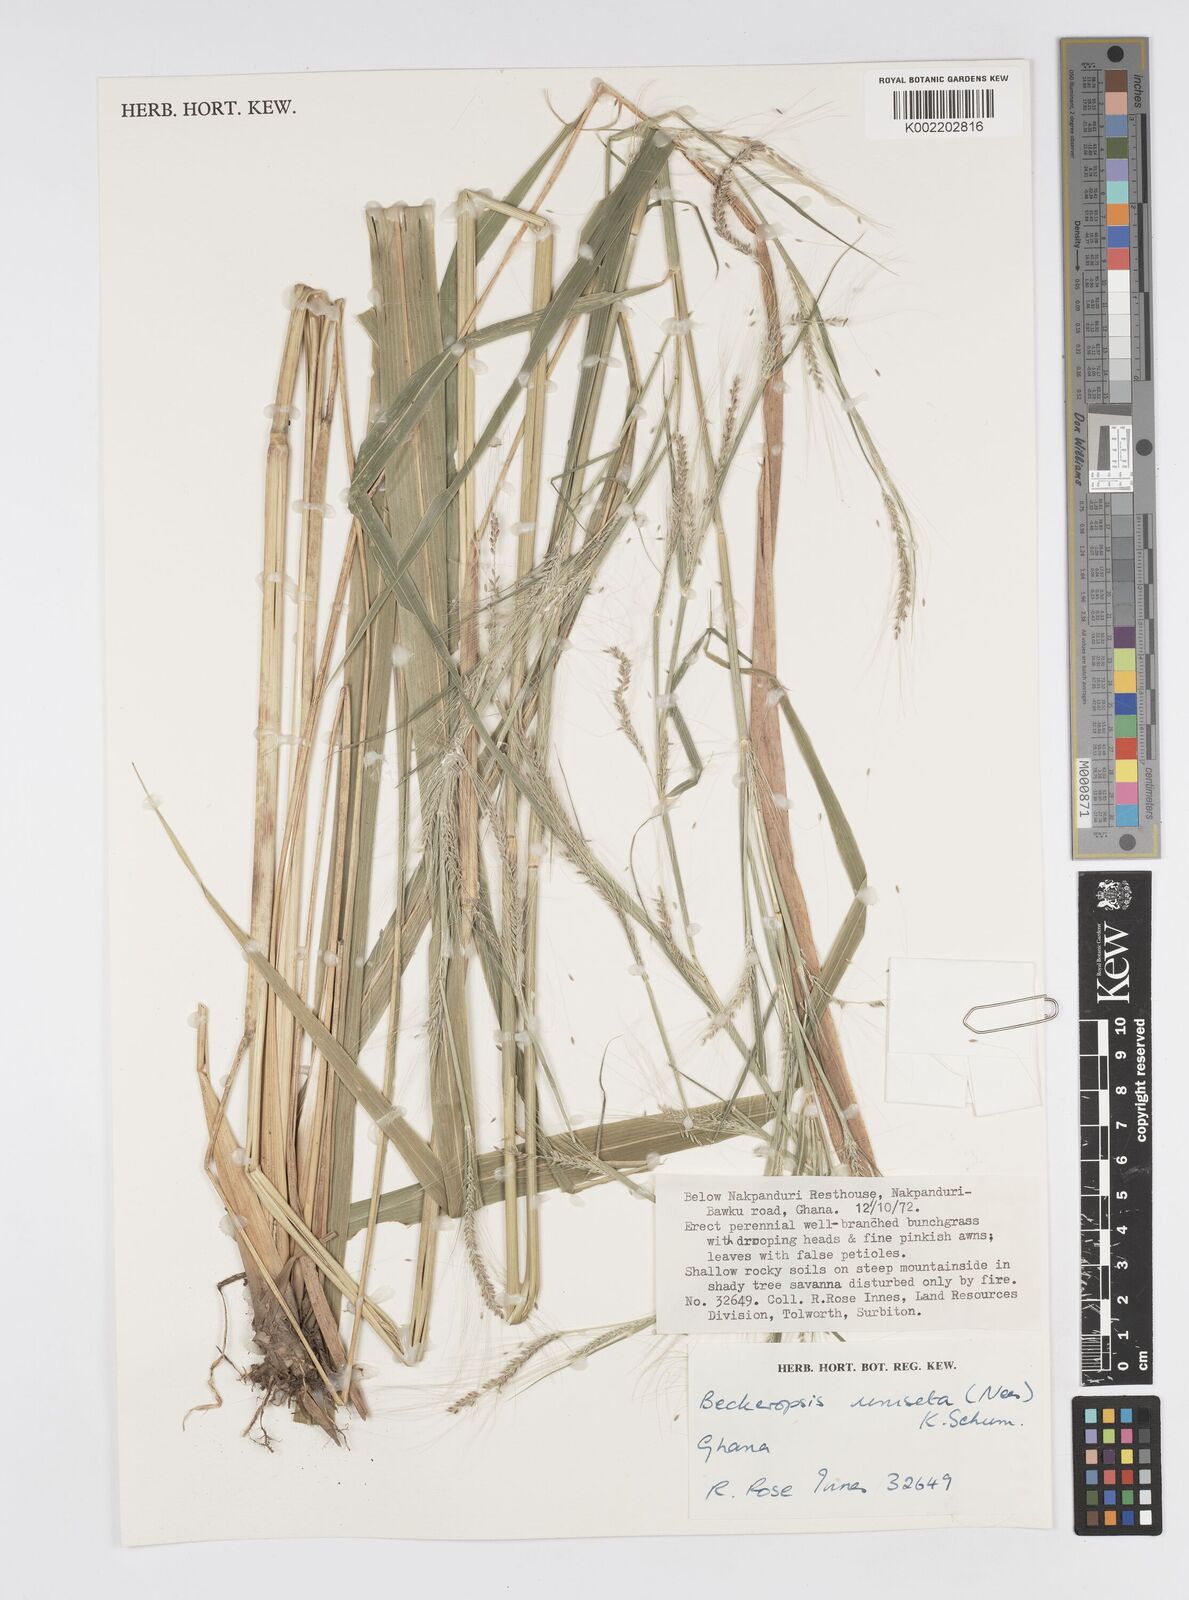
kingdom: Plantae
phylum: Tracheophyta
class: Liliopsida
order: Poales
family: Poaceae
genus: Cenchrus
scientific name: Cenchrus unisetus
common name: Natal grass
